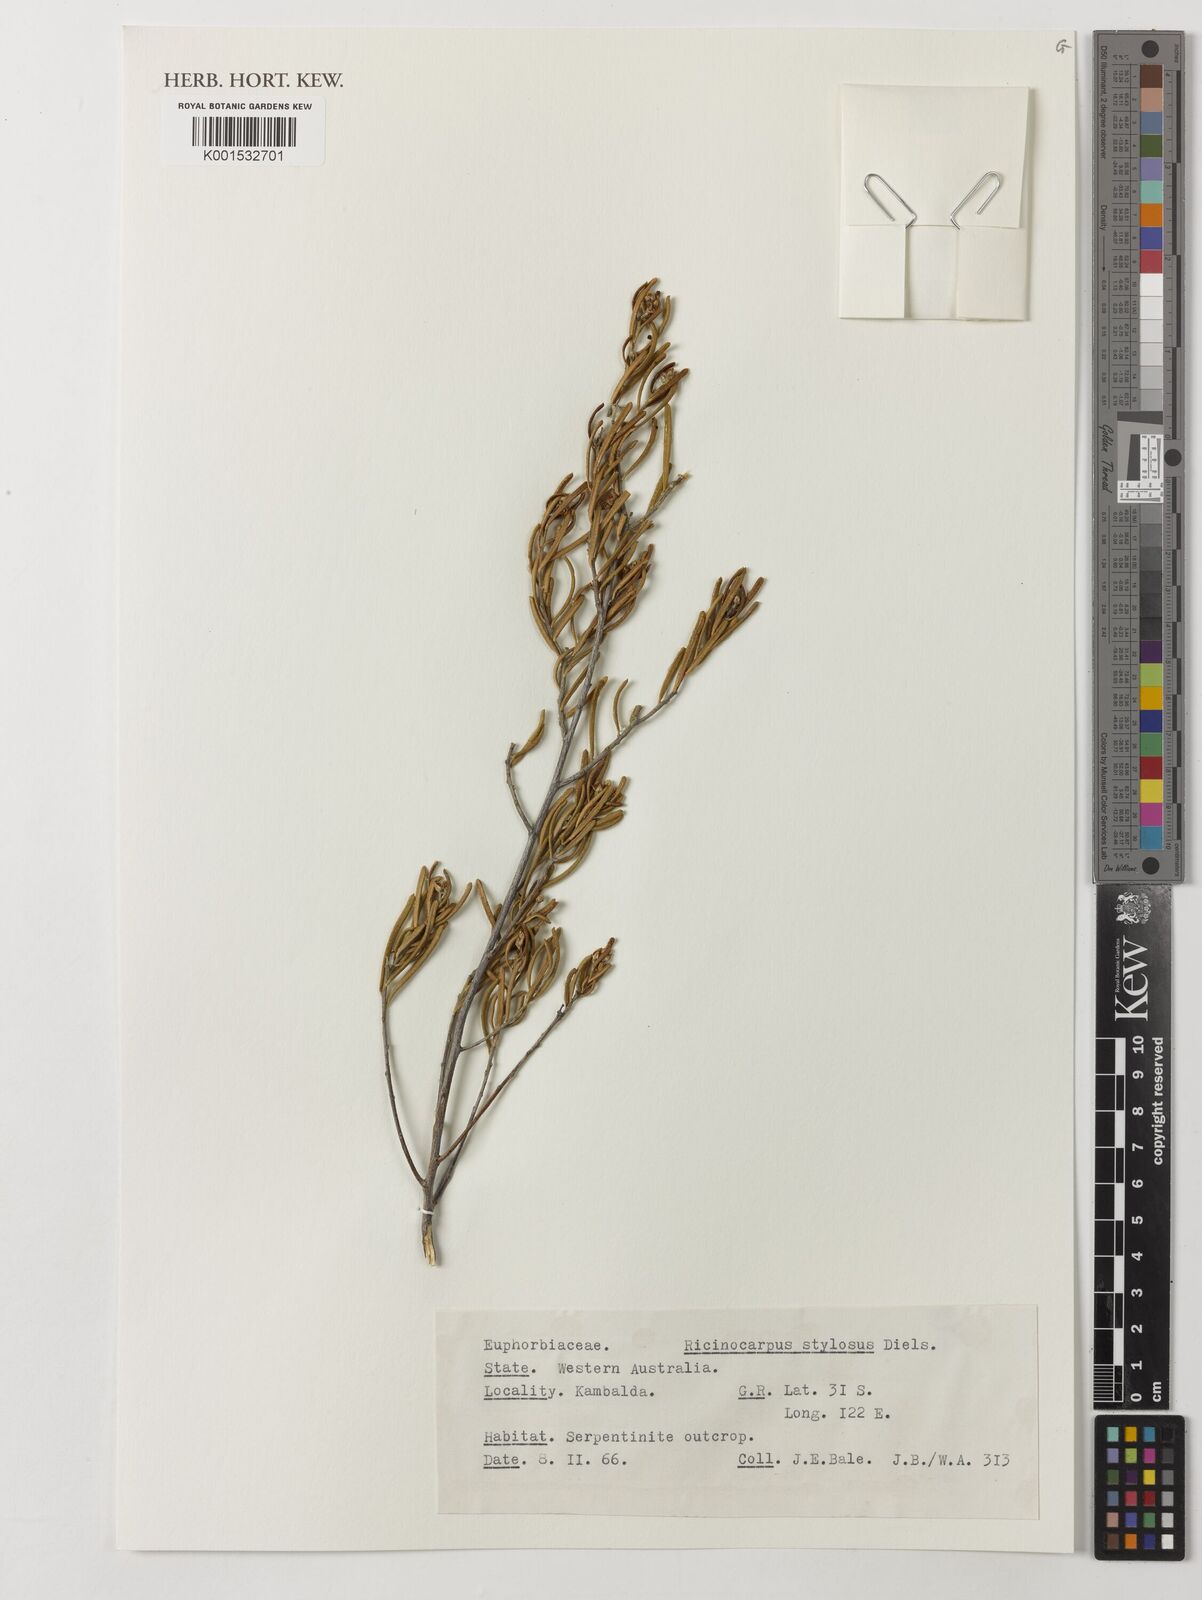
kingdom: Plantae
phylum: Tracheophyta
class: Magnoliopsida
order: Malpighiales
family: Euphorbiaceae
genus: Ricinocarpos
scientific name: Ricinocarpos stylosus
